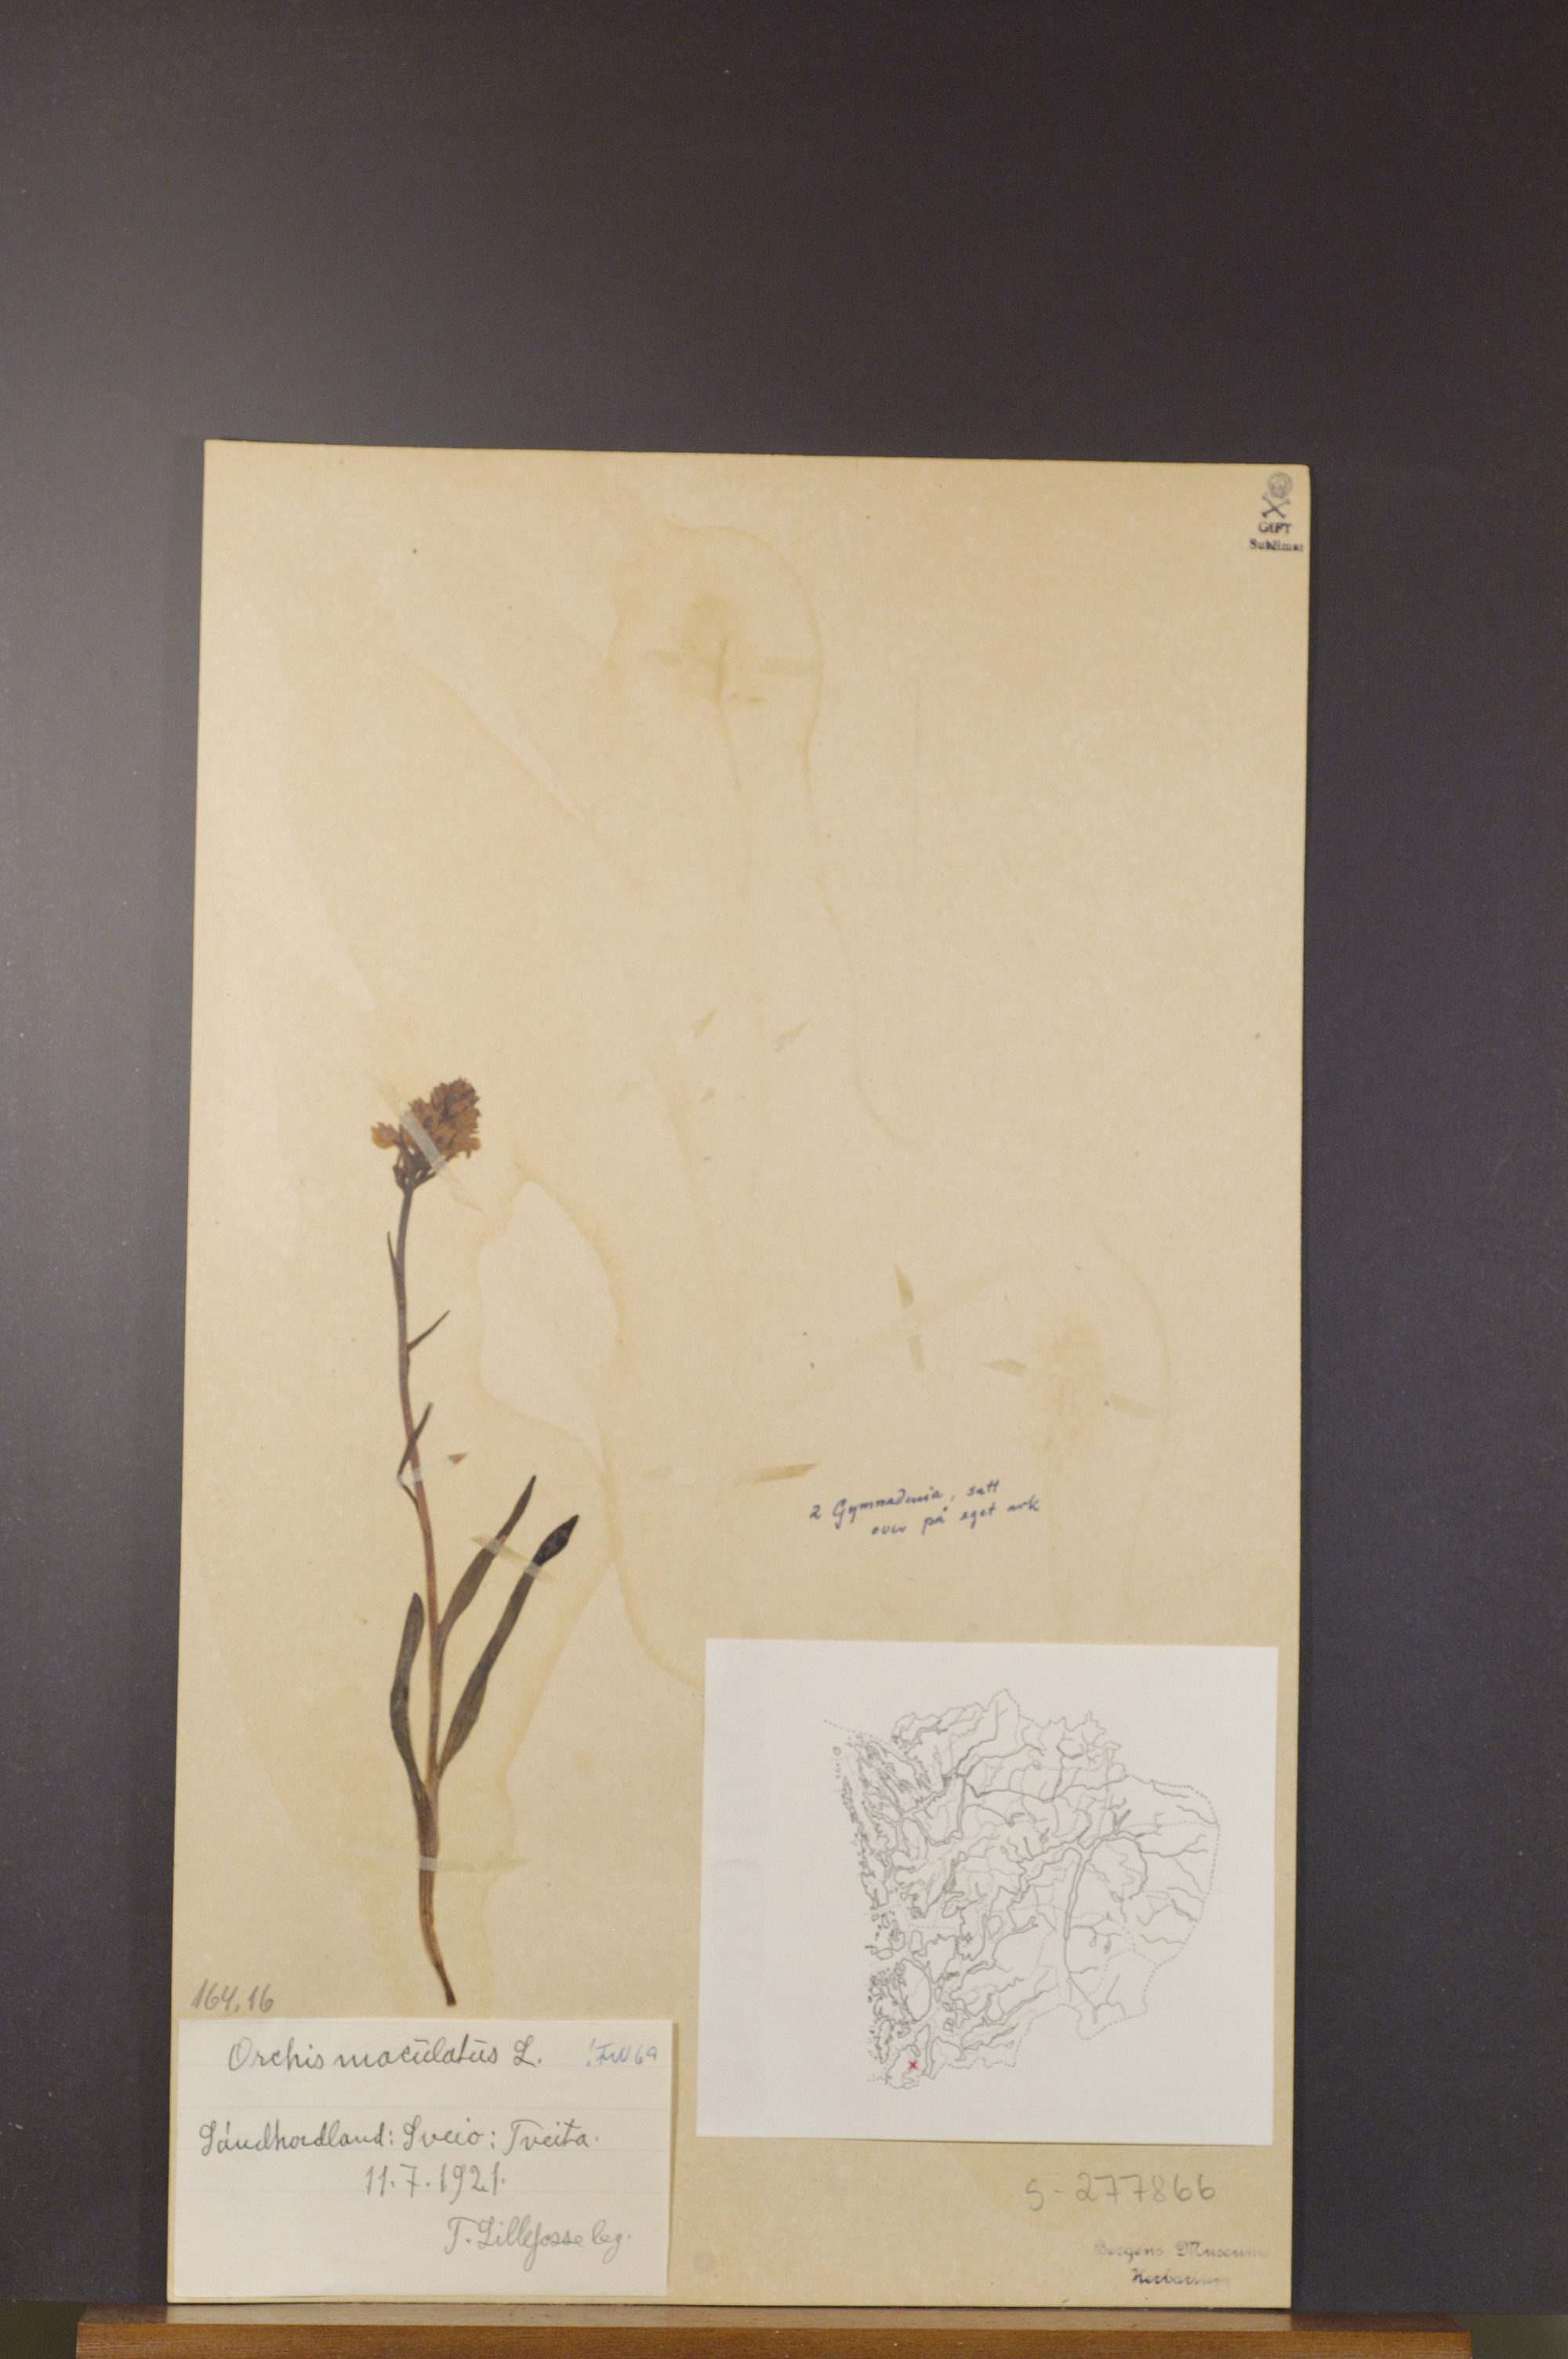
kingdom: Plantae
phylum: Tracheophyta
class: Liliopsida
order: Asparagales
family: Orchidaceae
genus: Dactylorhiza
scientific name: Dactylorhiza maculata
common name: Heath spotted-orchid
